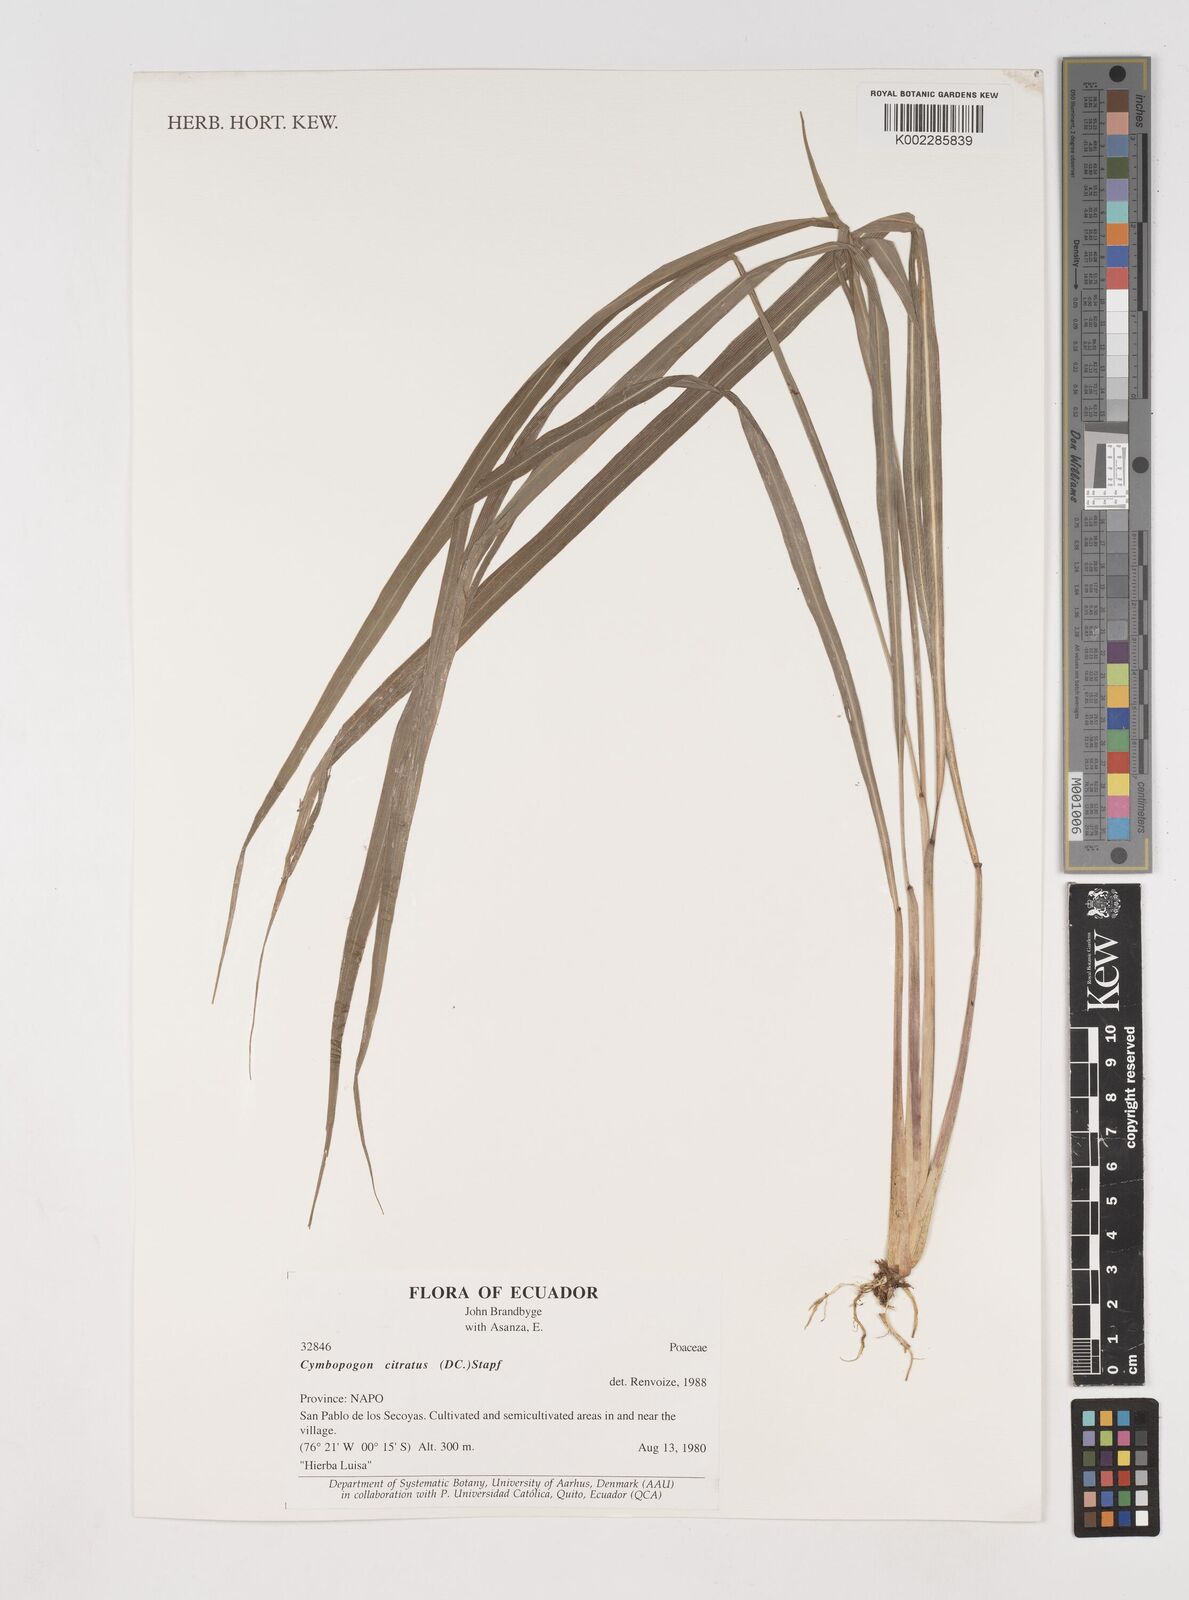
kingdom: Plantae
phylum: Tracheophyta
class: Liliopsida
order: Poales
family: Poaceae
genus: Cymbopogon
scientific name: Cymbopogon citratus
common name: Lemon grass
